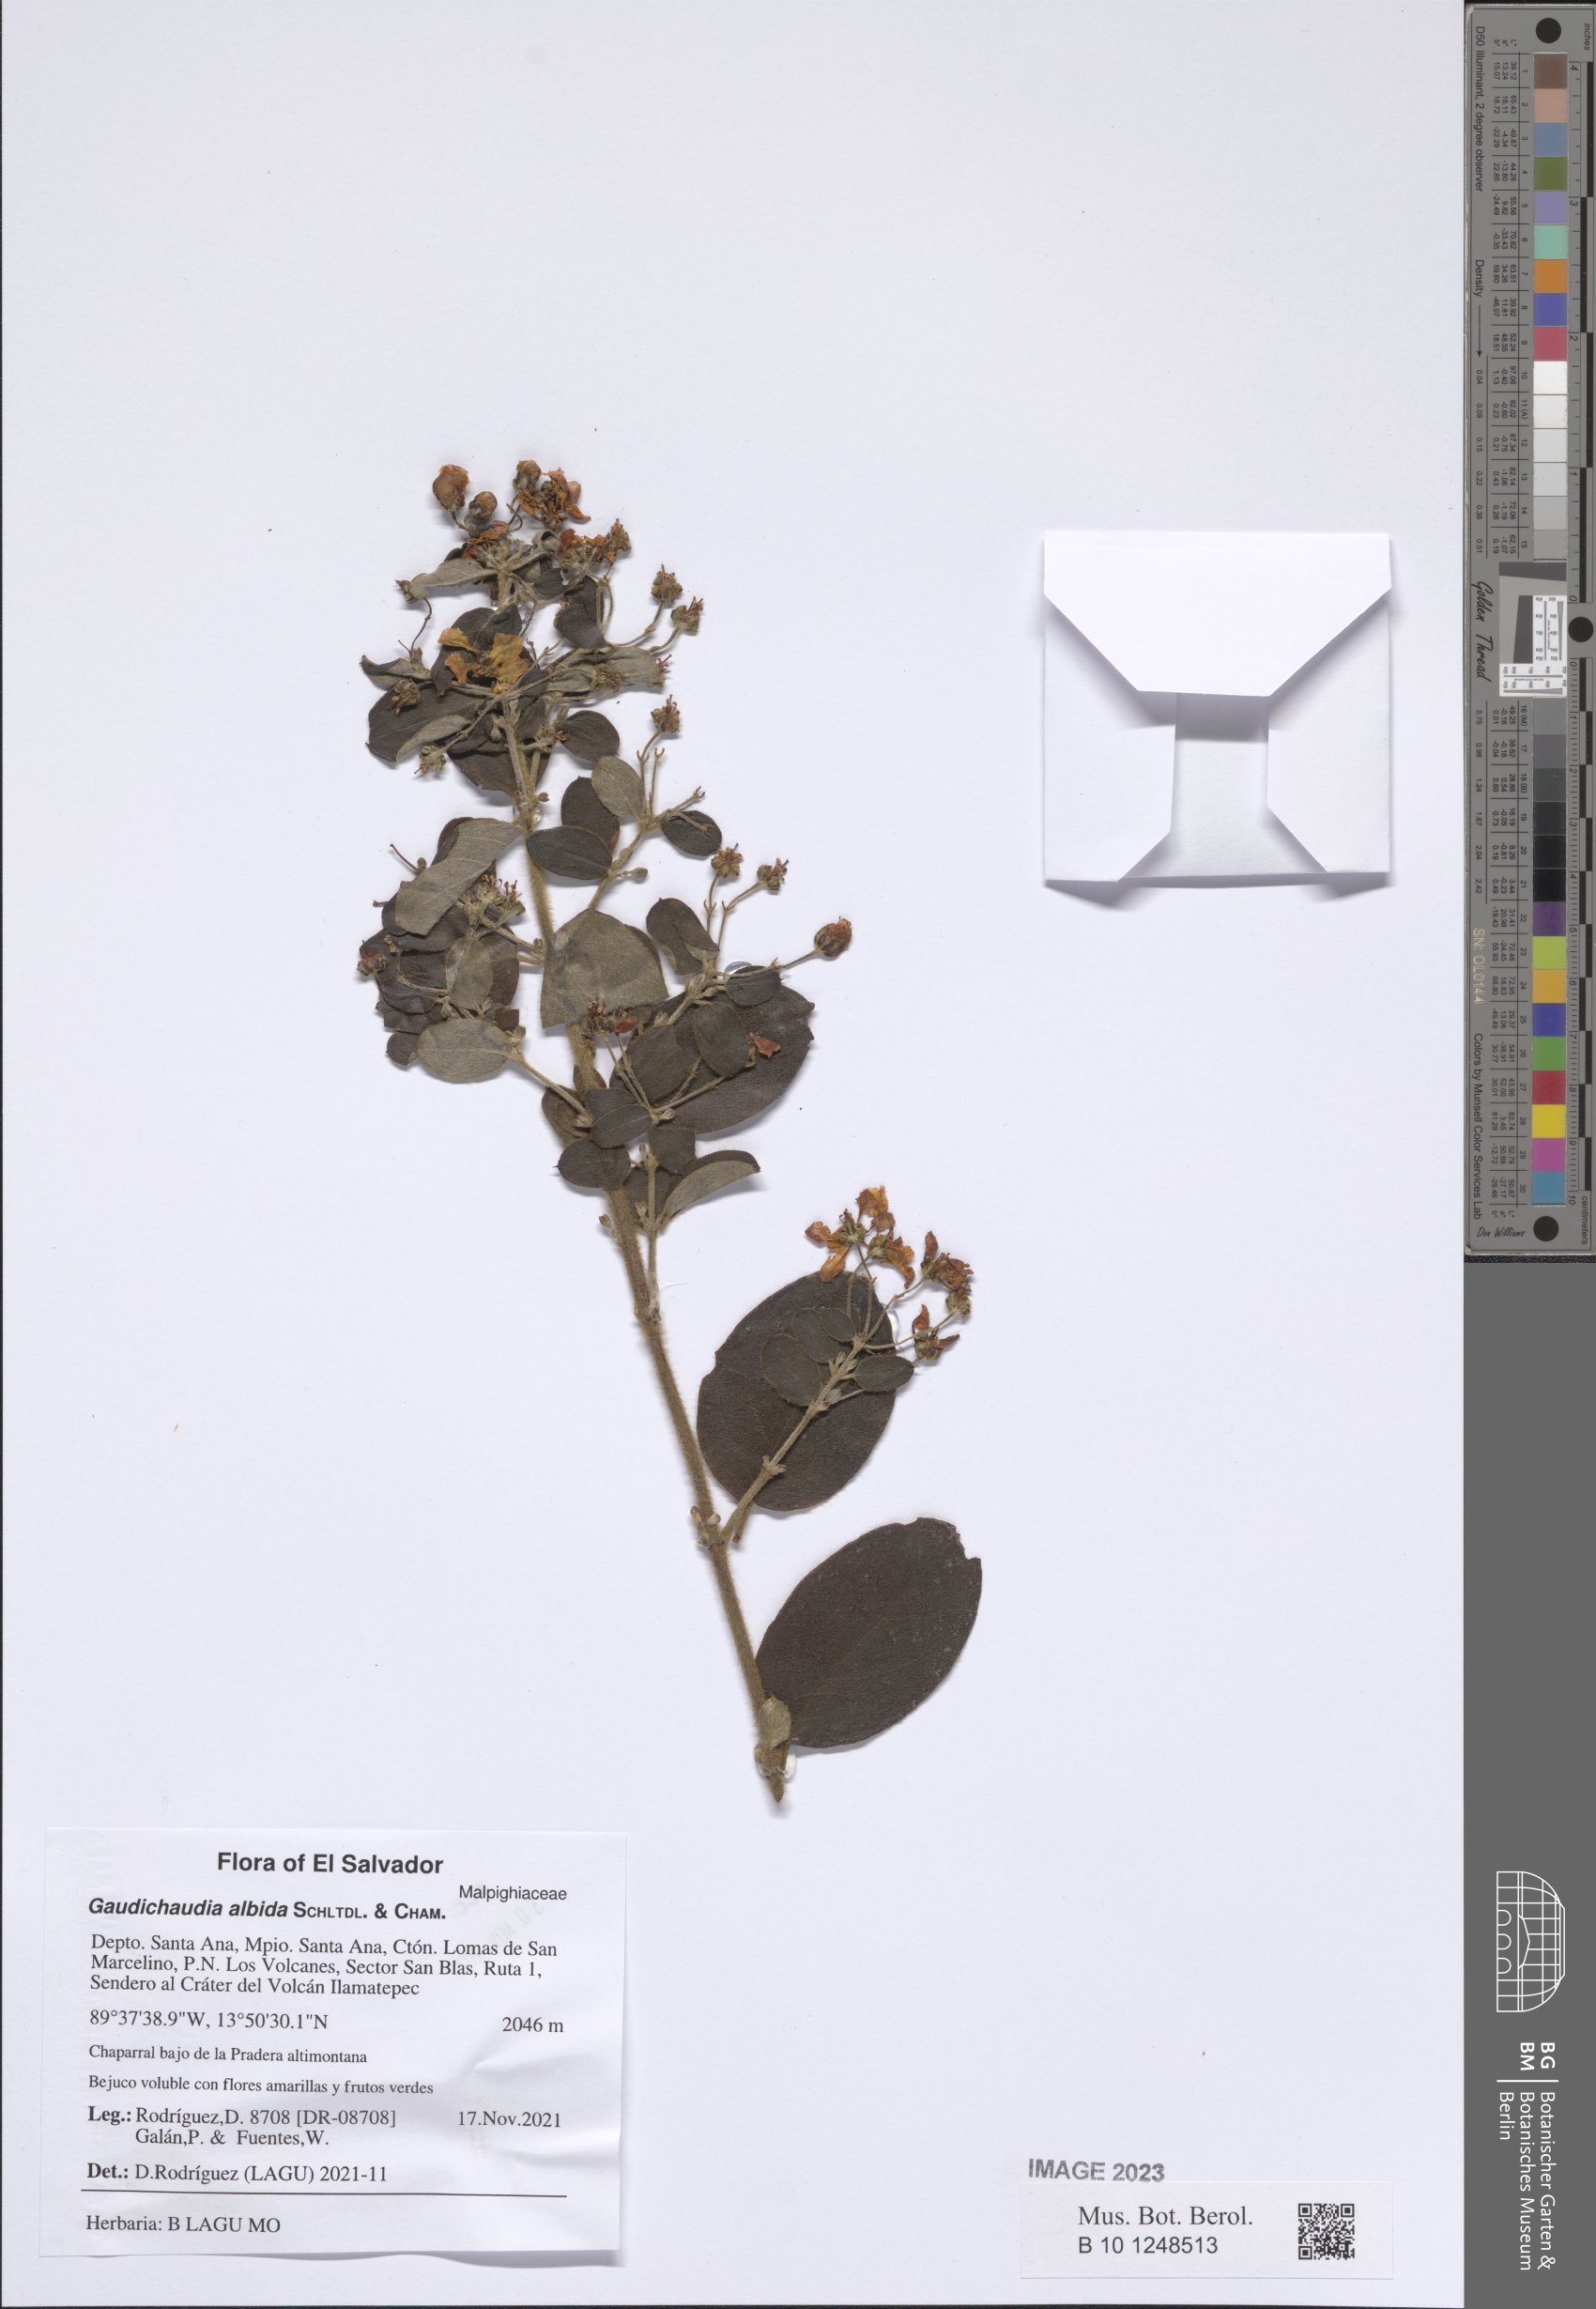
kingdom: Plantae
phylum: Tracheophyta
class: Magnoliopsida
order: Malpighiales
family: Malpighiaceae
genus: Gaudichaudia
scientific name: Gaudichaudia albida
